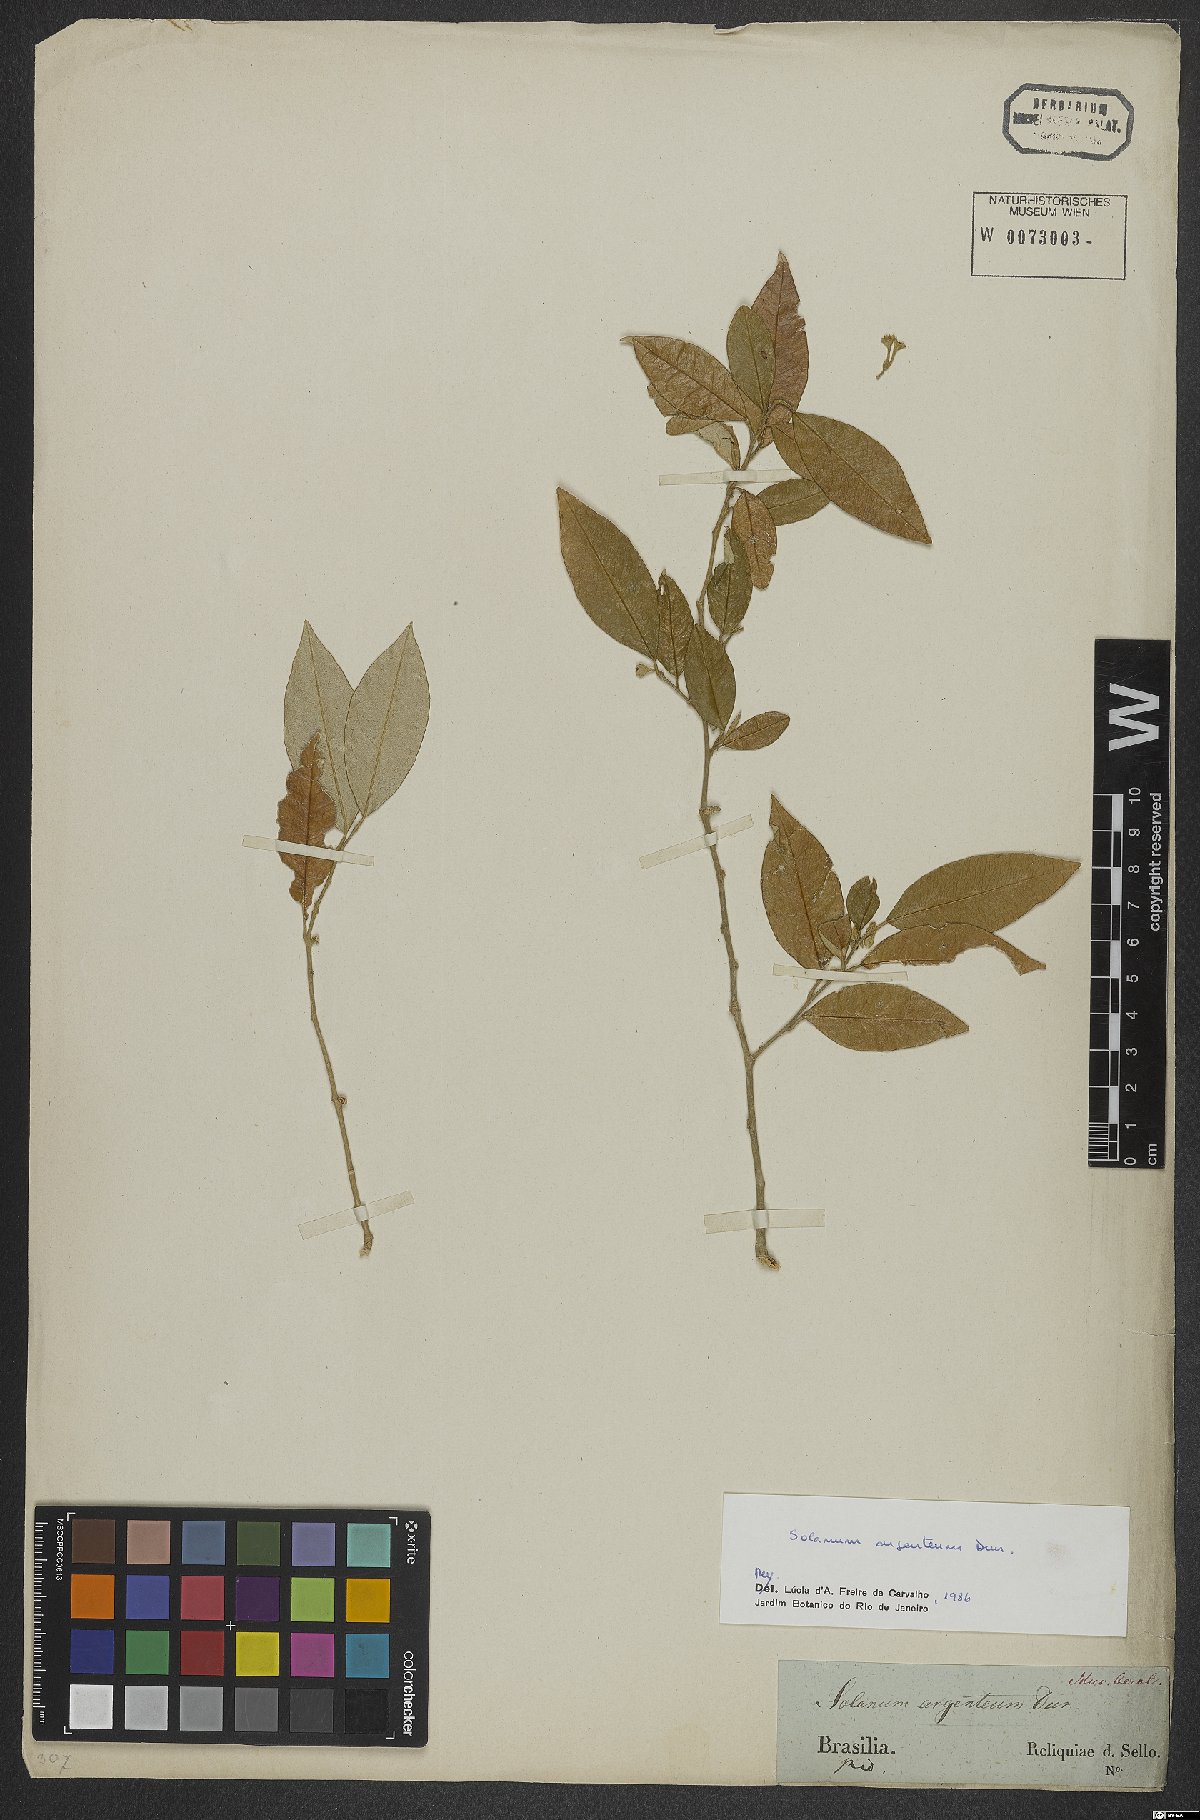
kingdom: Plantae
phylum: Tracheophyta
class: Magnoliopsida
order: Solanales
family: Solanaceae
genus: Solanum
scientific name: Solanum swartzianum
